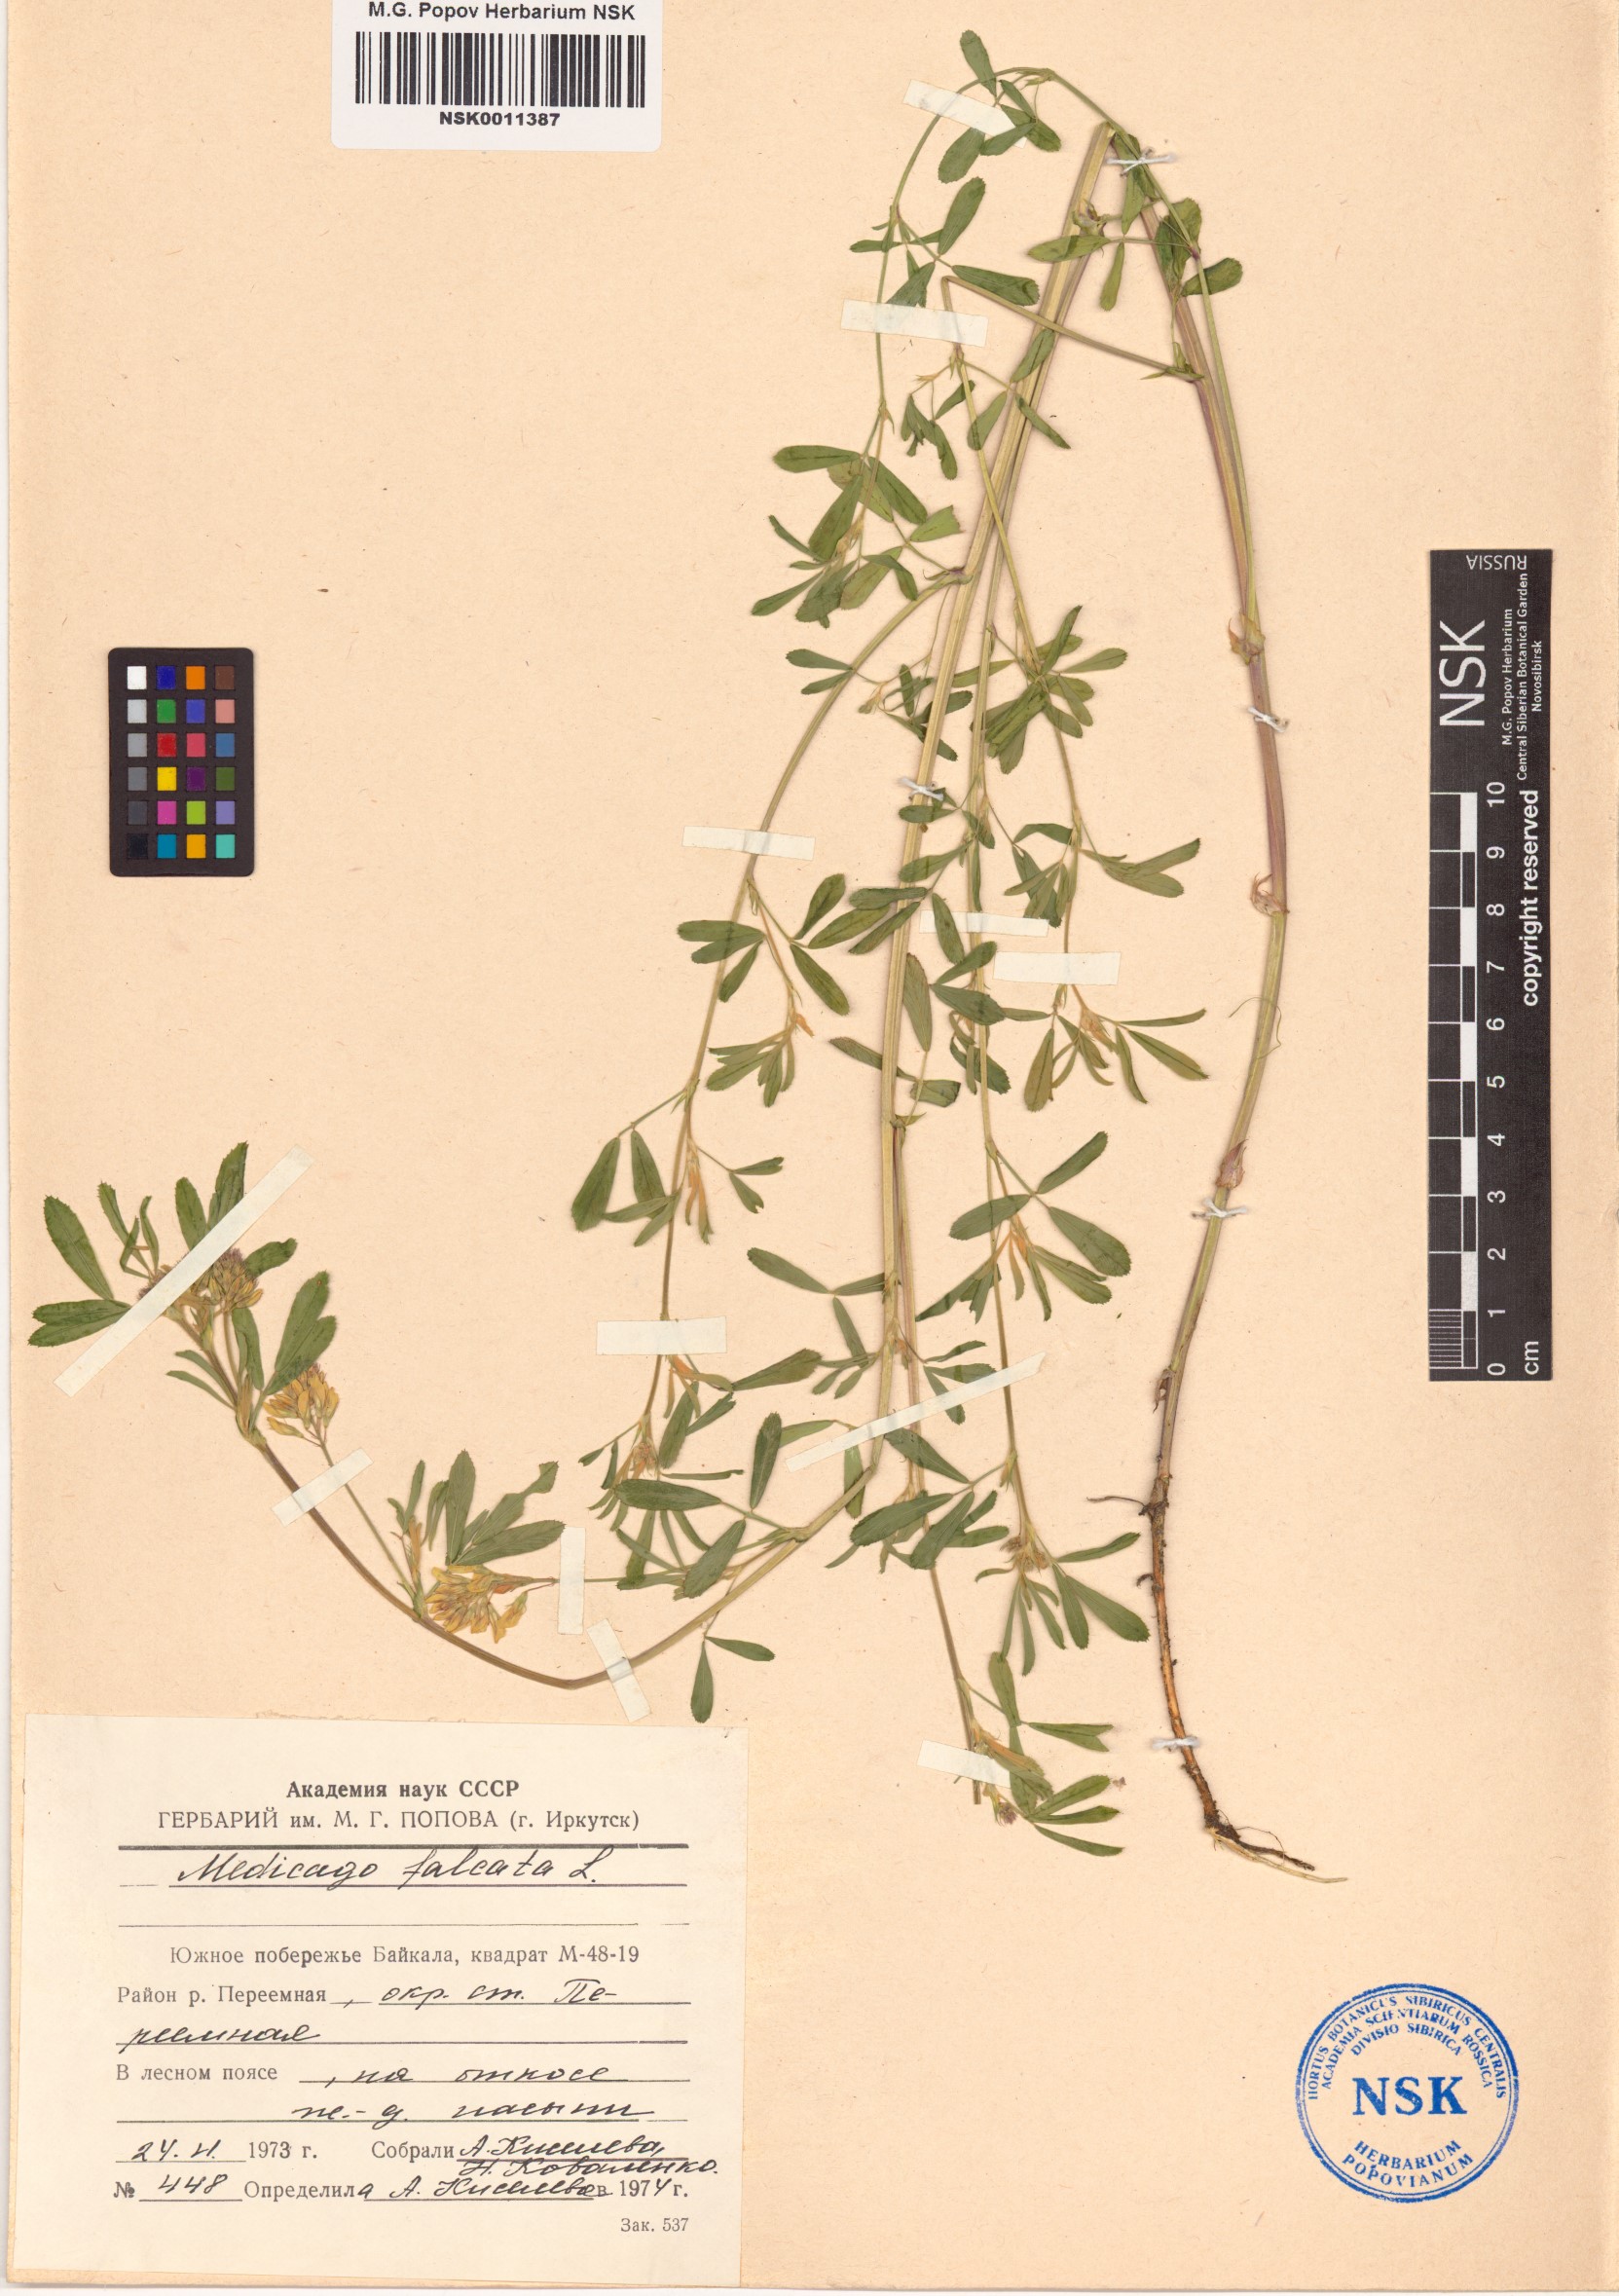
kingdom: Plantae
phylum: Tracheophyta
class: Magnoliopsida
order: Fabales
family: Fabaceae
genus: Medicago
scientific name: Medicago falcata
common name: Sickle medick
